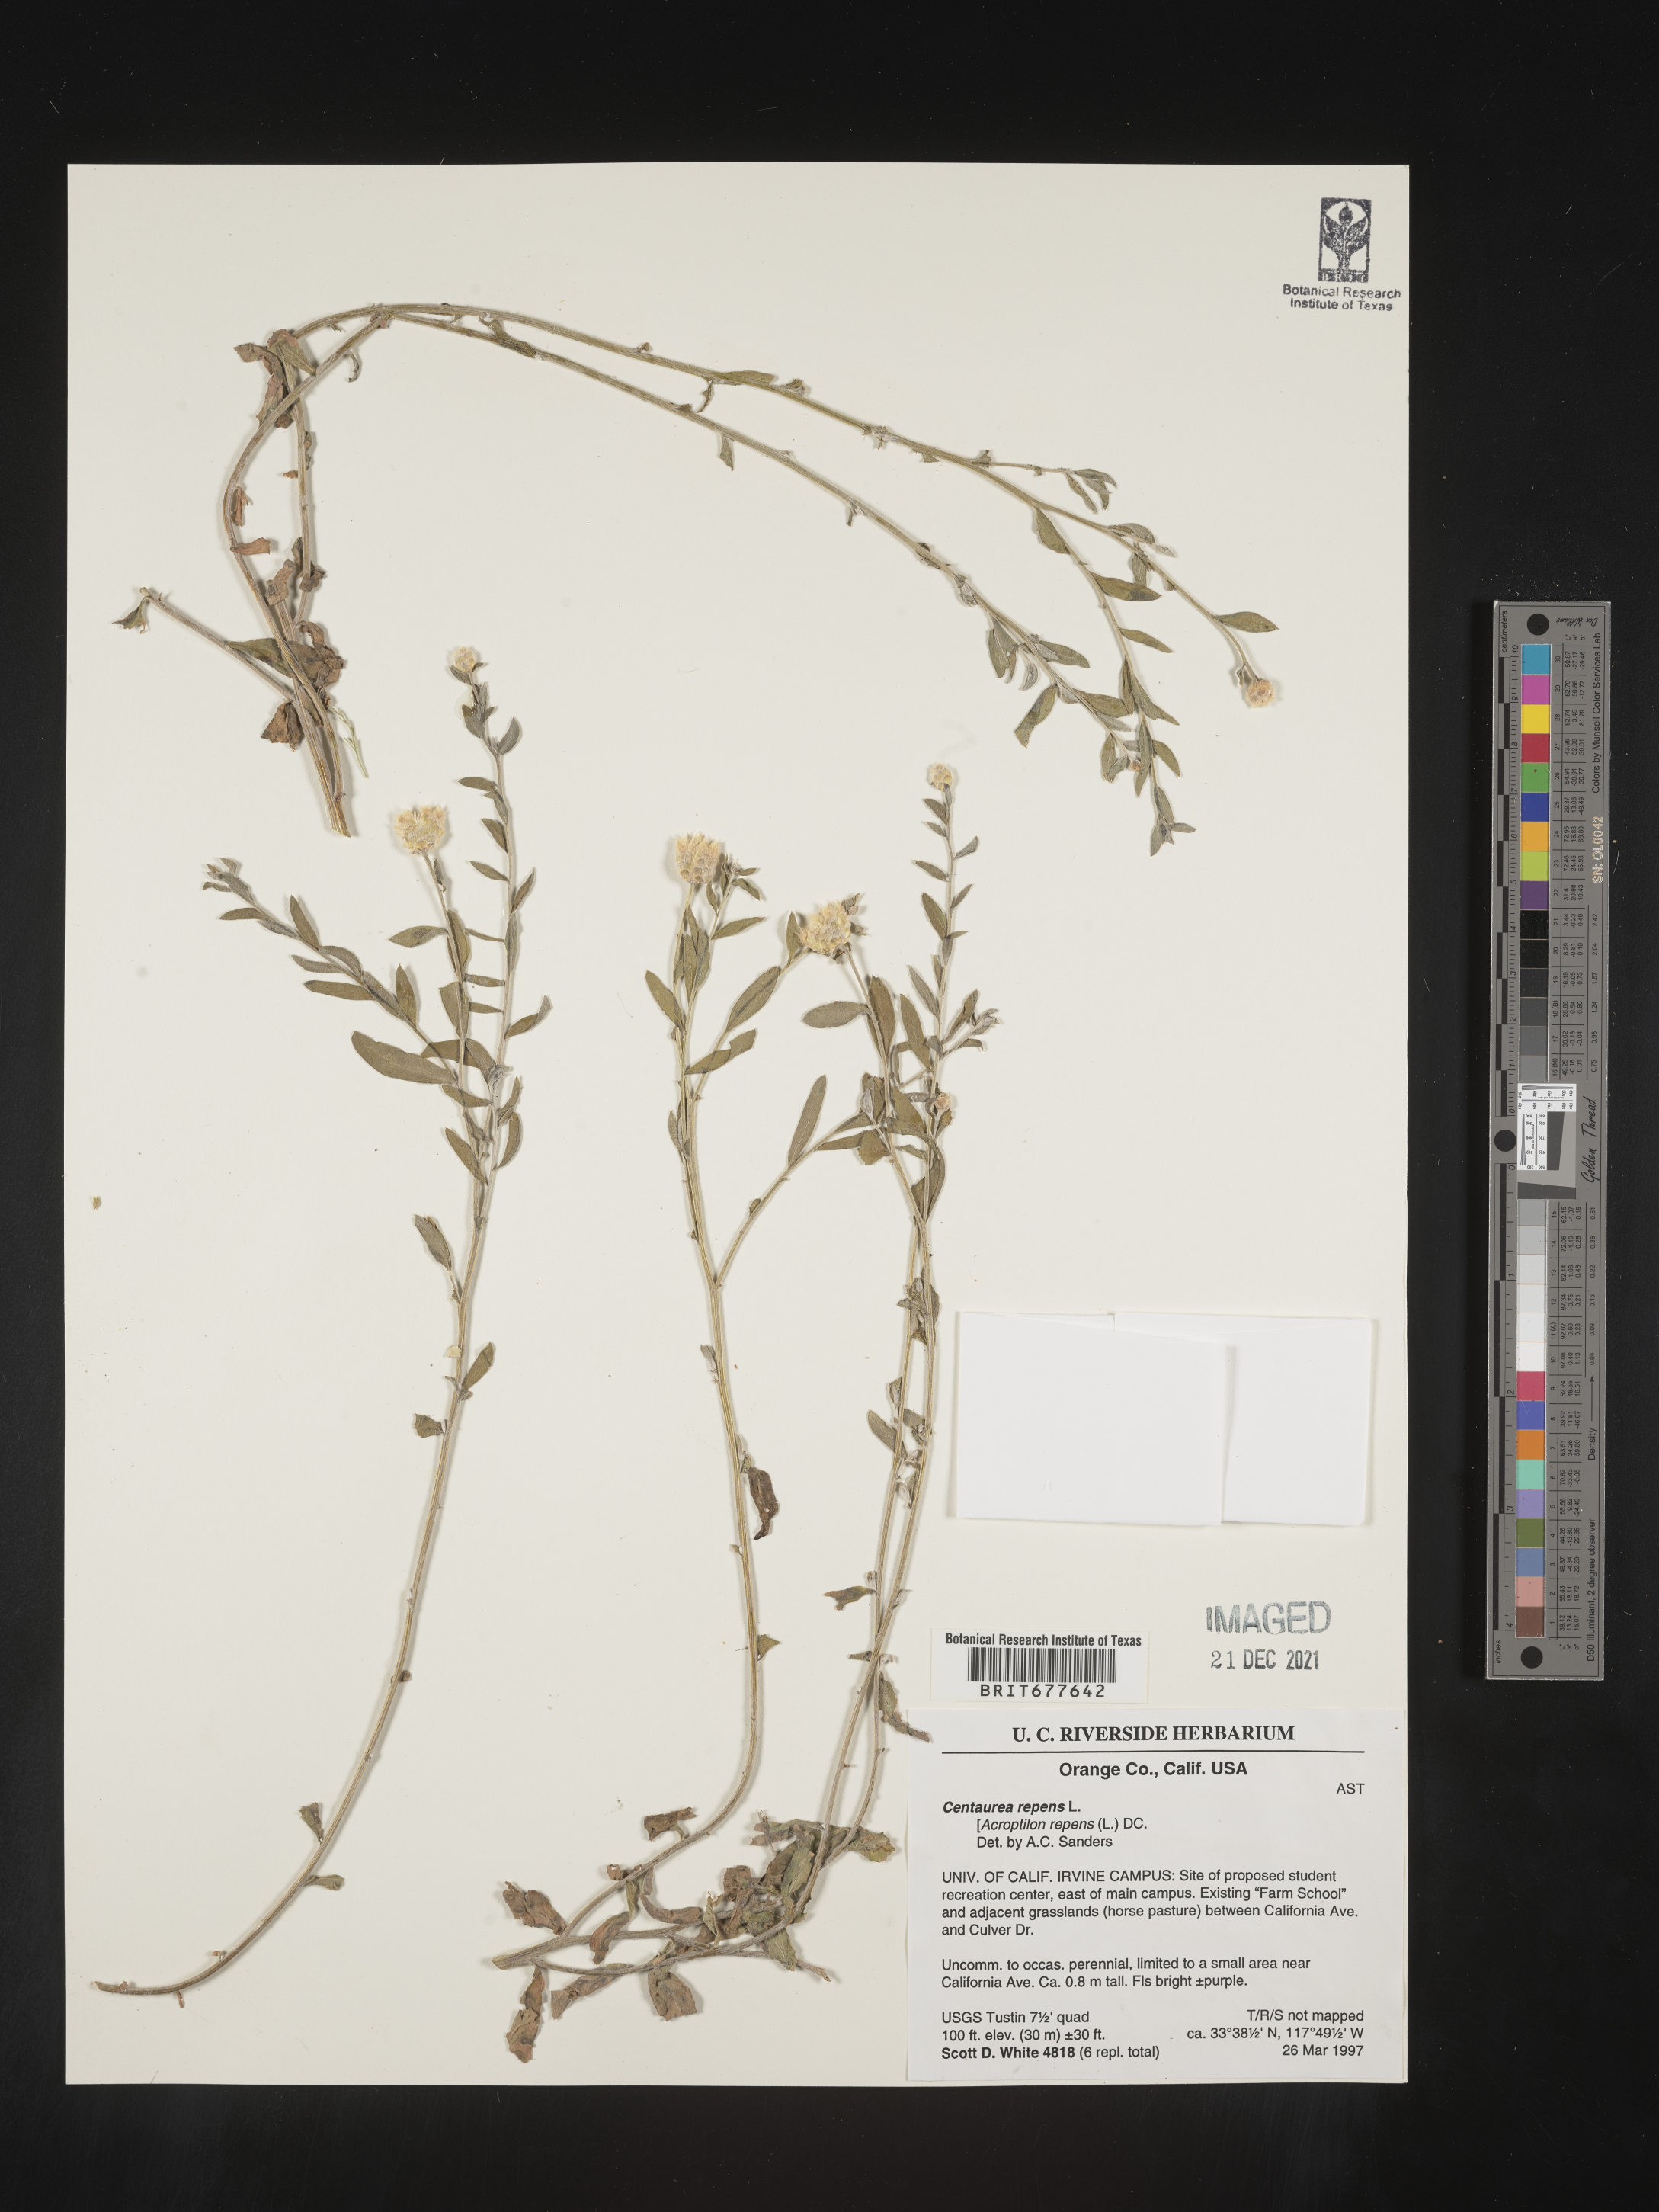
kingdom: Plantae
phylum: Tracheophyta
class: Magnoliopsida
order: Asterales
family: Asteraceae
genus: Leuzea
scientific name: Leuzea repens
